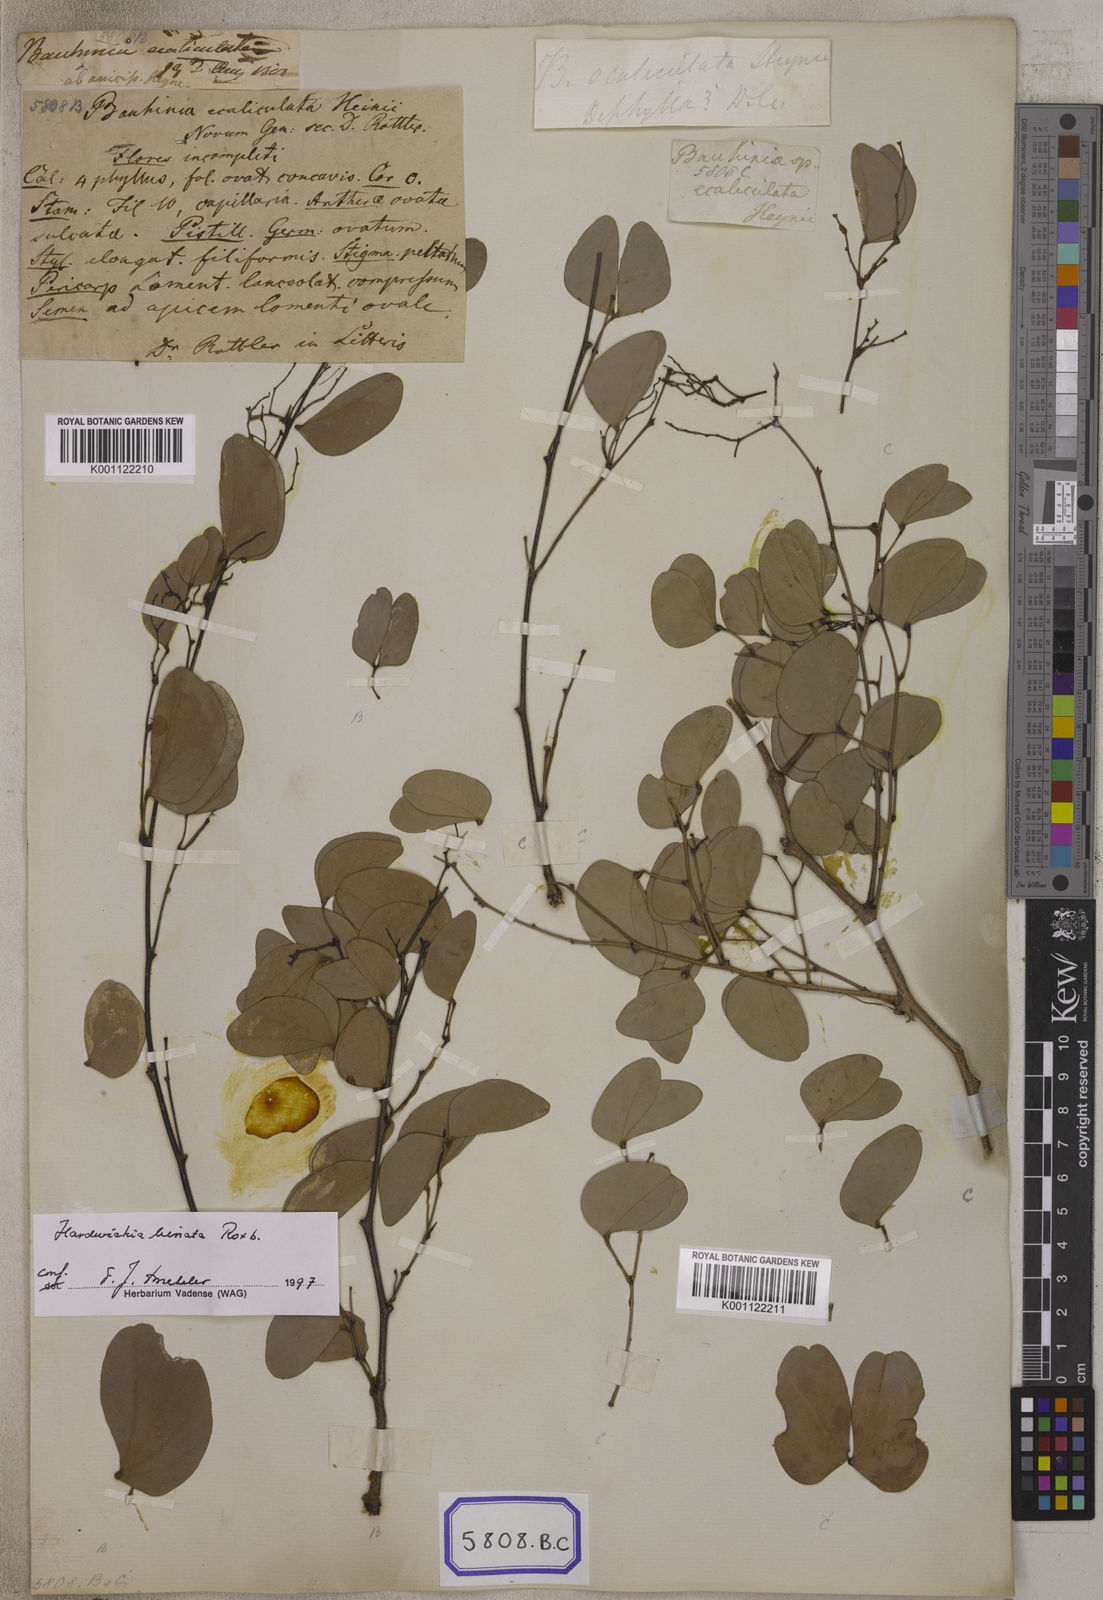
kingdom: Plantae
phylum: Tracheophyta
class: Magnoliopsida
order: Fabales
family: Fabaceae
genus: Hardwickia
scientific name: Hardwickia binata
